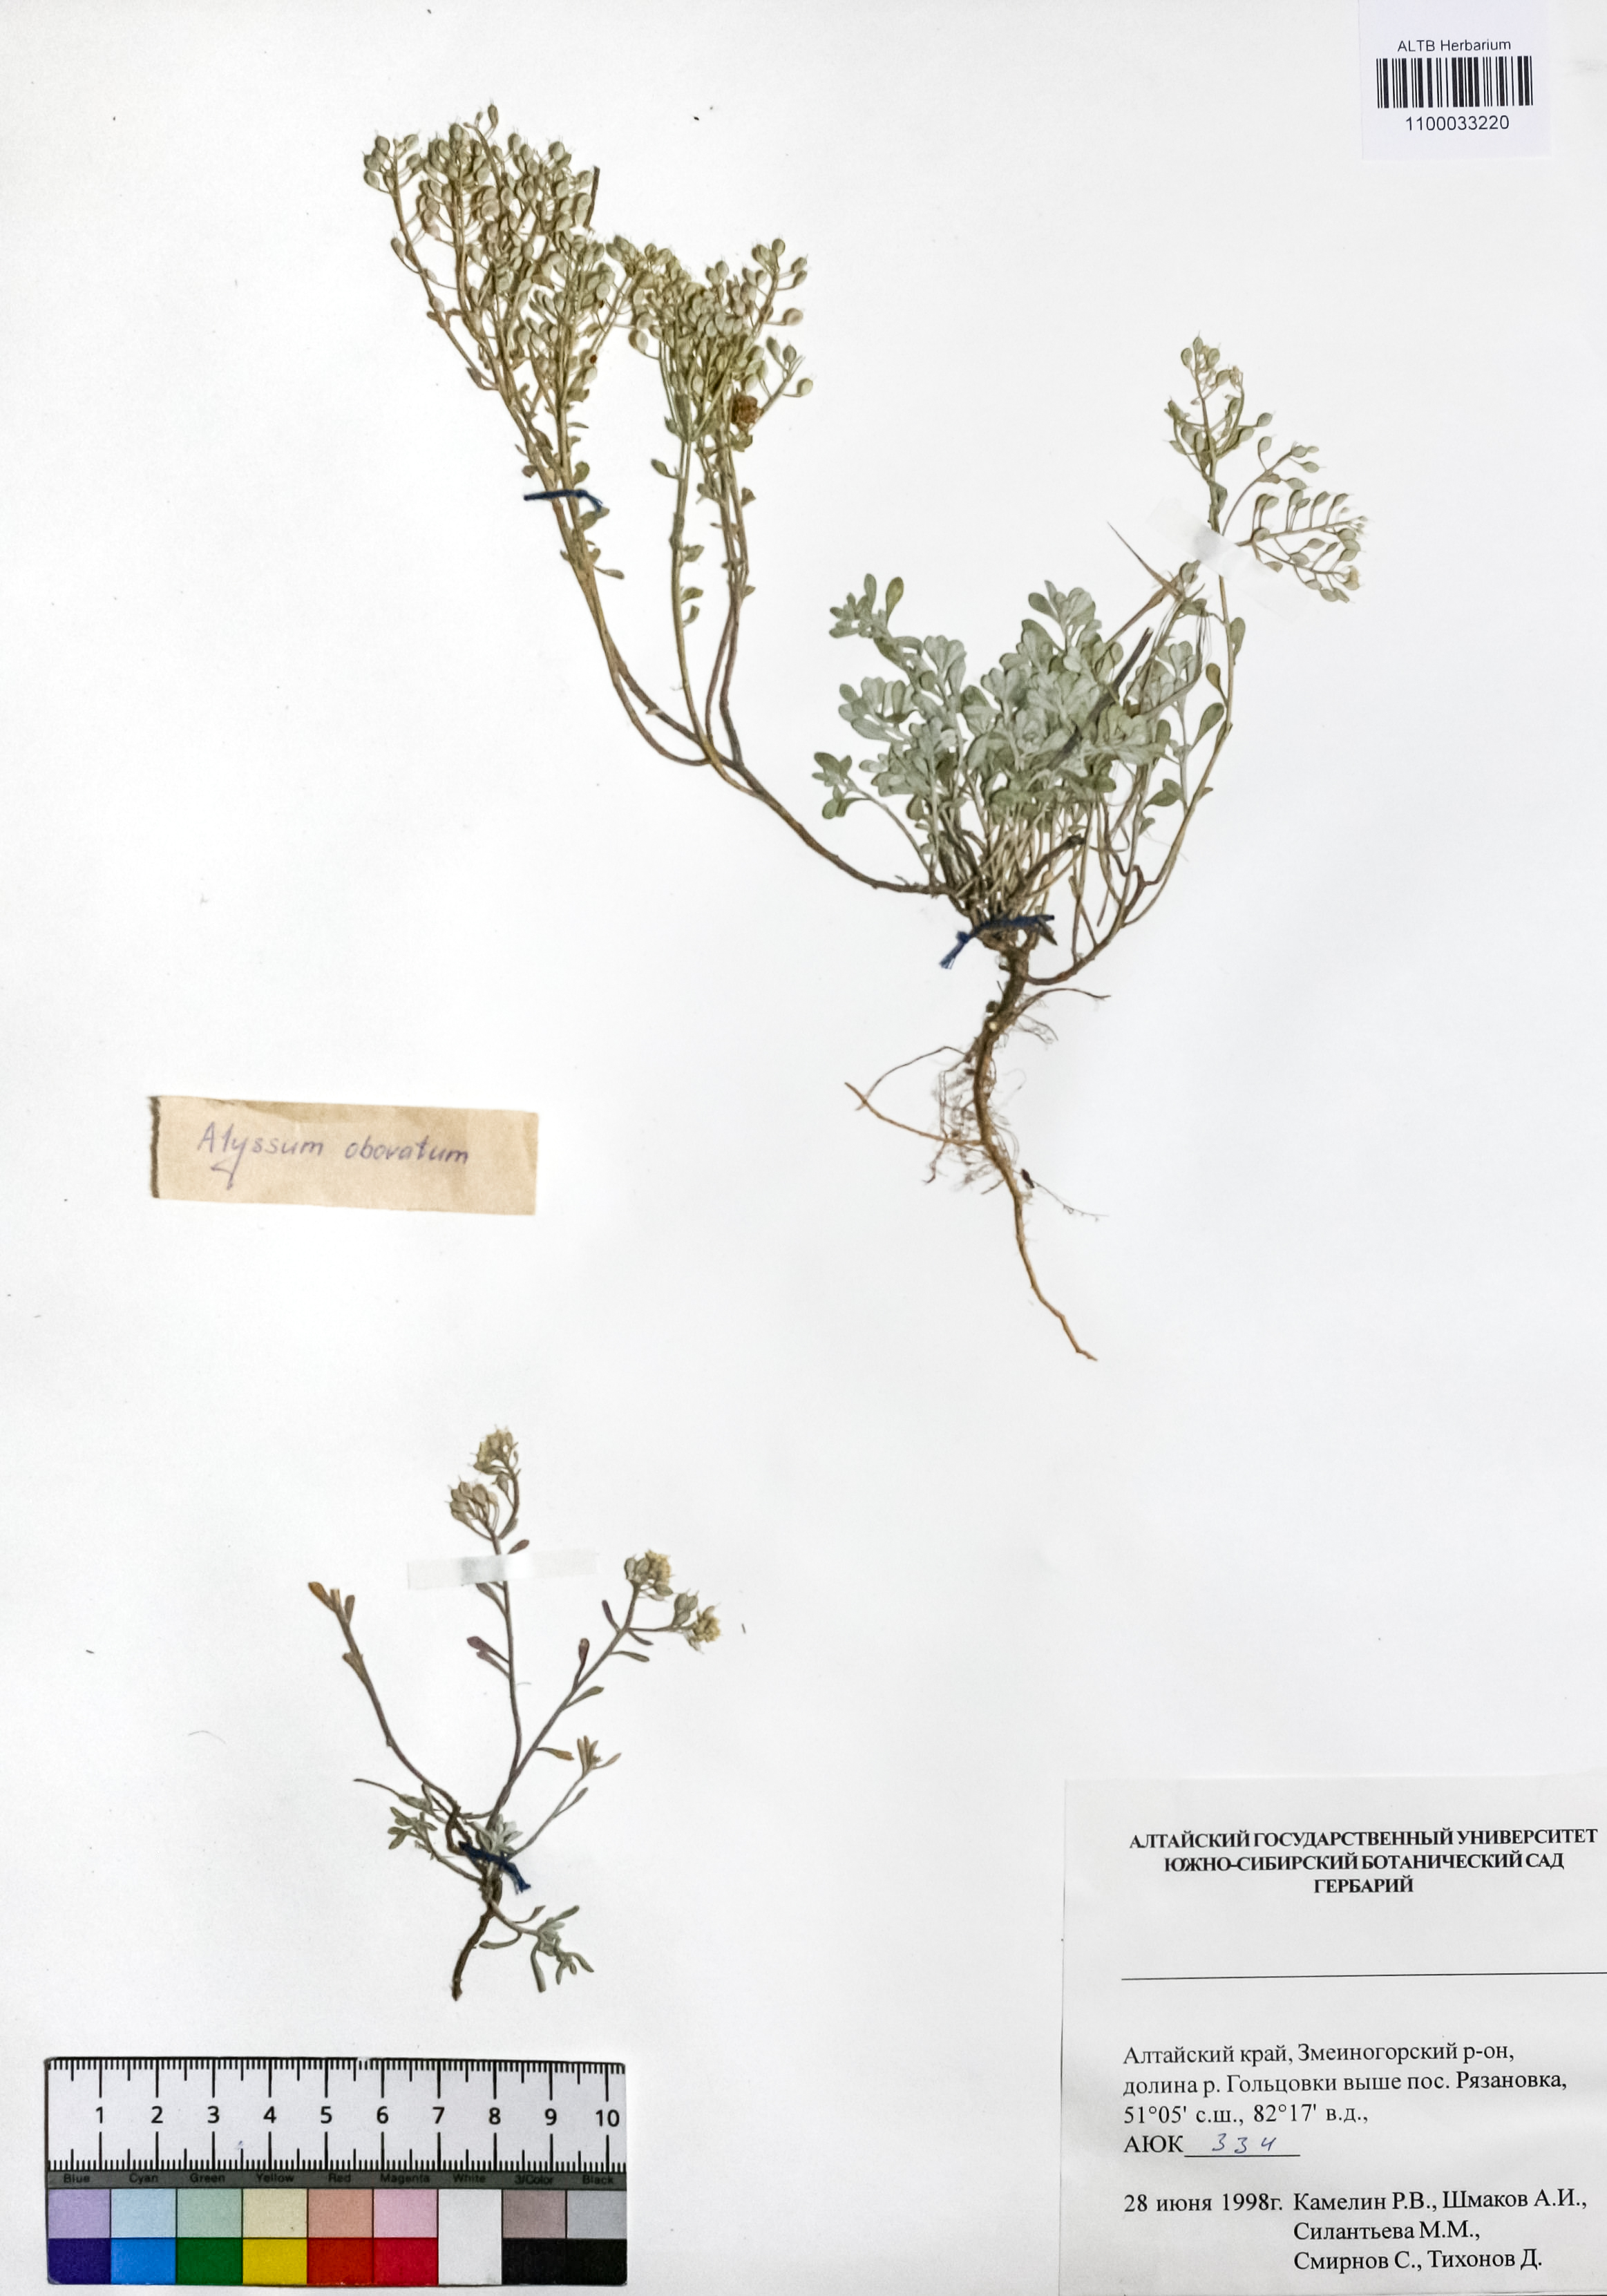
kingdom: Plantae
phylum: Tracheophyta
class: Magnoliopsida
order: Brassicales
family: Brassicaceae
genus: Odontarrhena
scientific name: Odontarrhena obovata
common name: American alyssum
